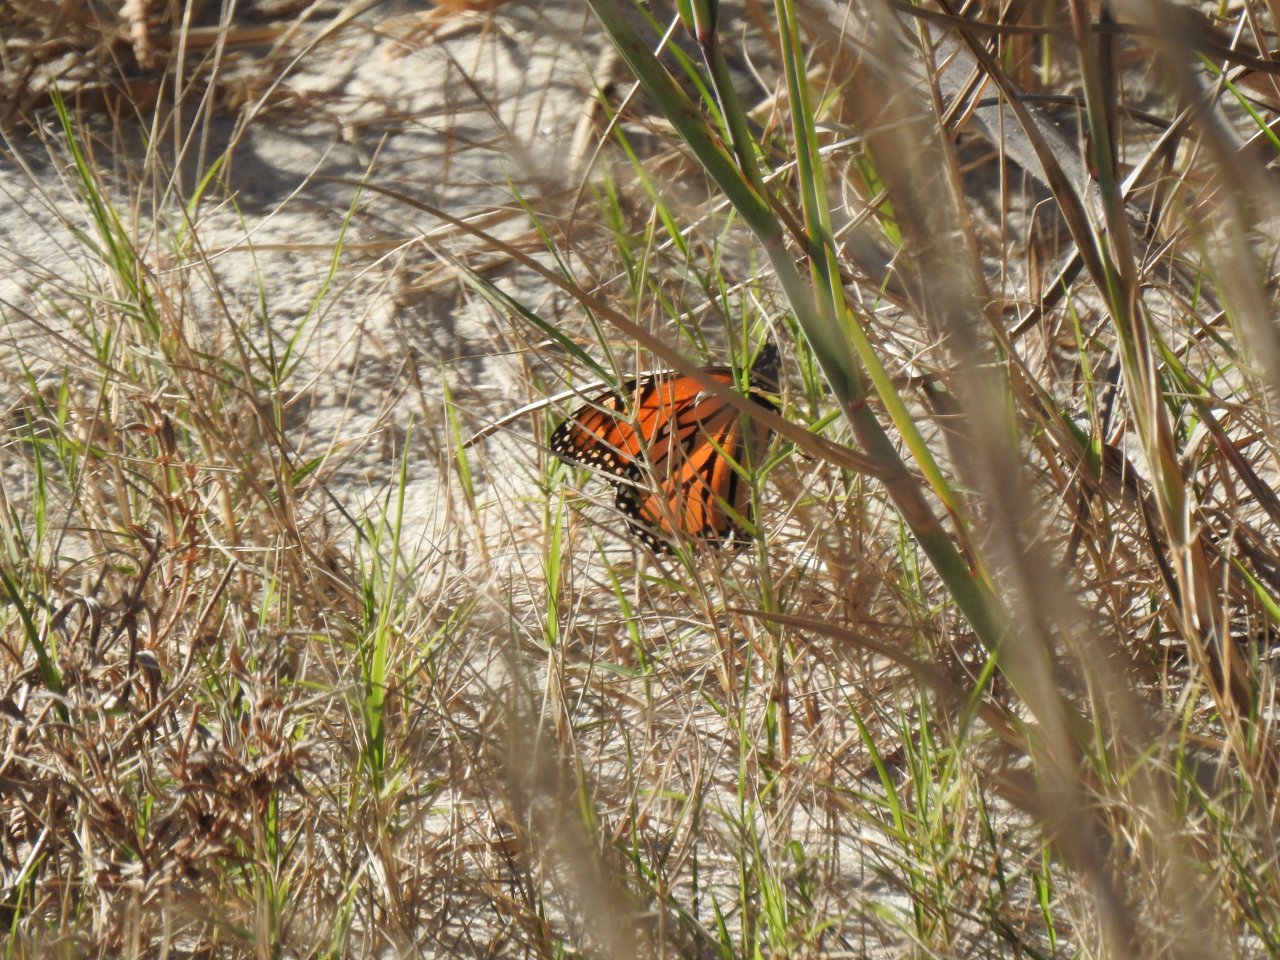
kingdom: Animalia
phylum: Arthropoda
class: Insecta
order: Lepidoptera
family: Nymphalidae
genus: Danaus
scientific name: Danaus plexippus
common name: Monarch
